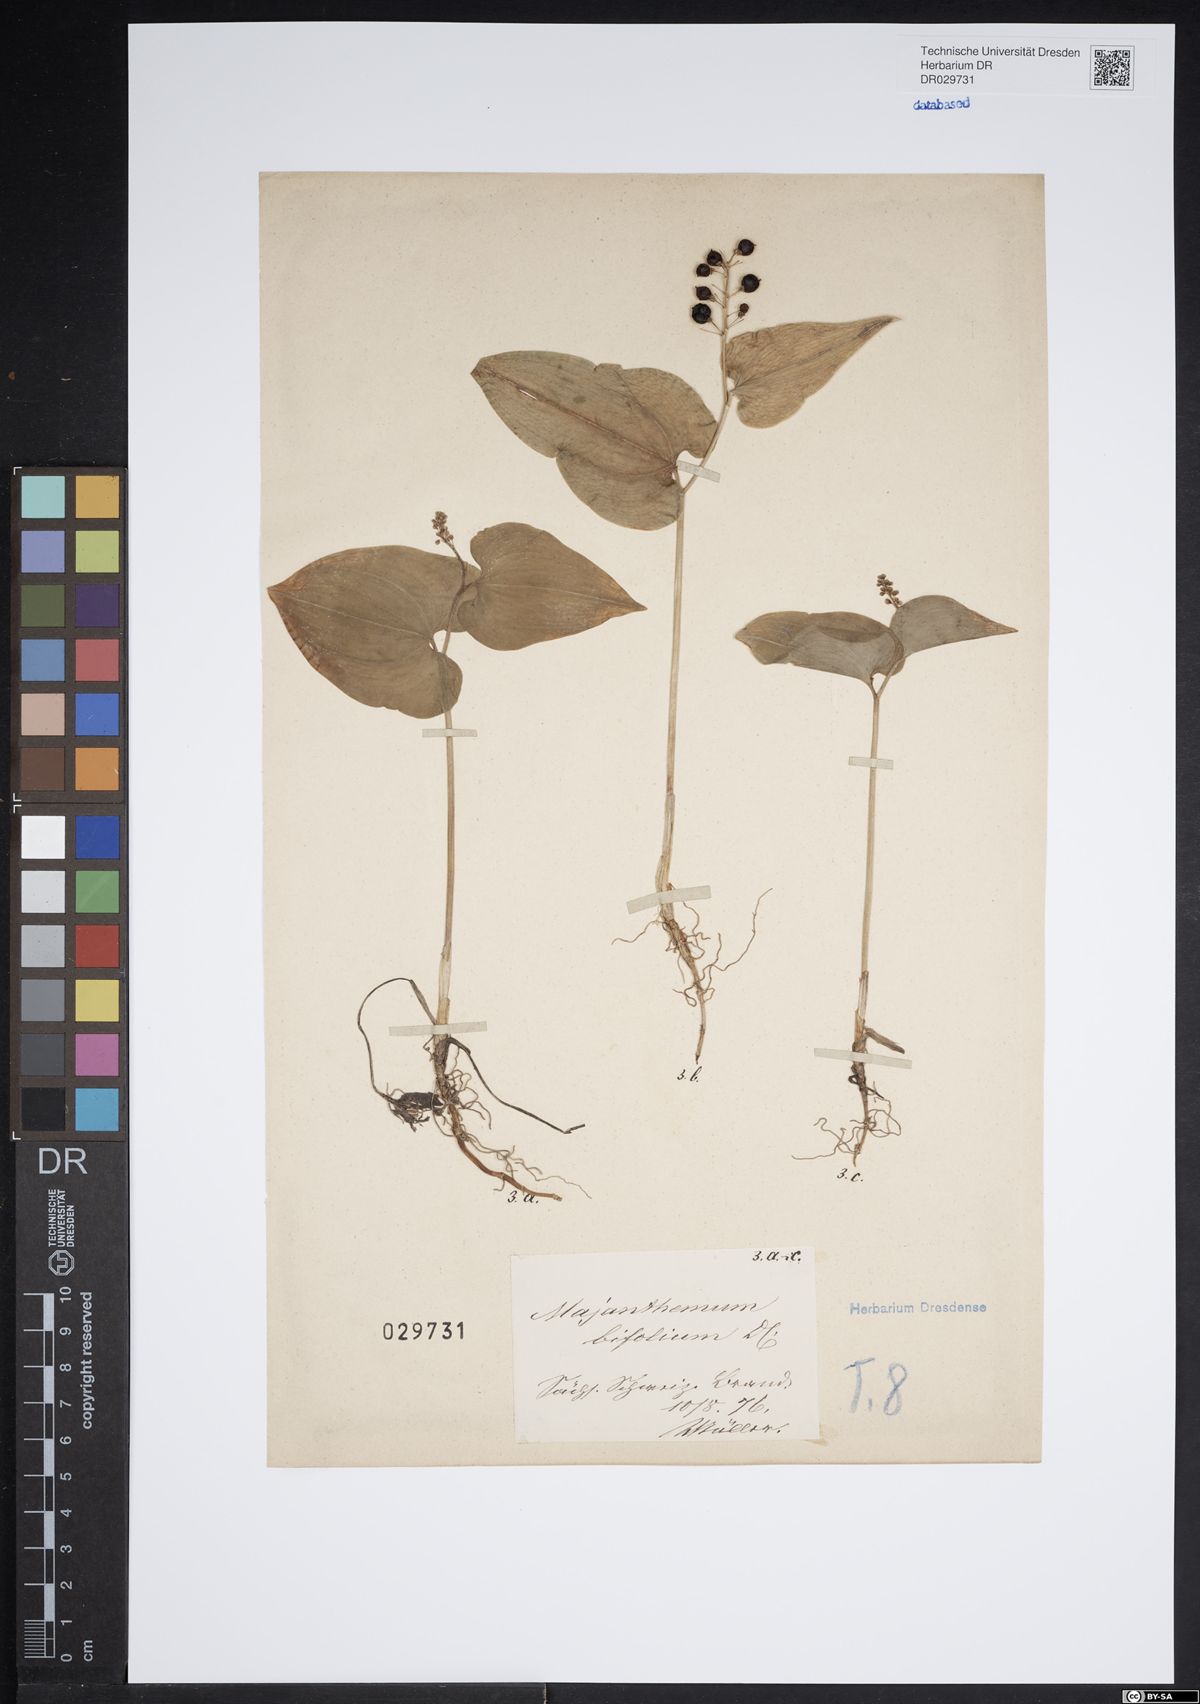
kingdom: Plantae
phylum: Tracheophyta
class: Liliopsida
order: Asparagales
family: Asparagaceae
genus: Maianthemum
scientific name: Maianthemum bifolium
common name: May lily
